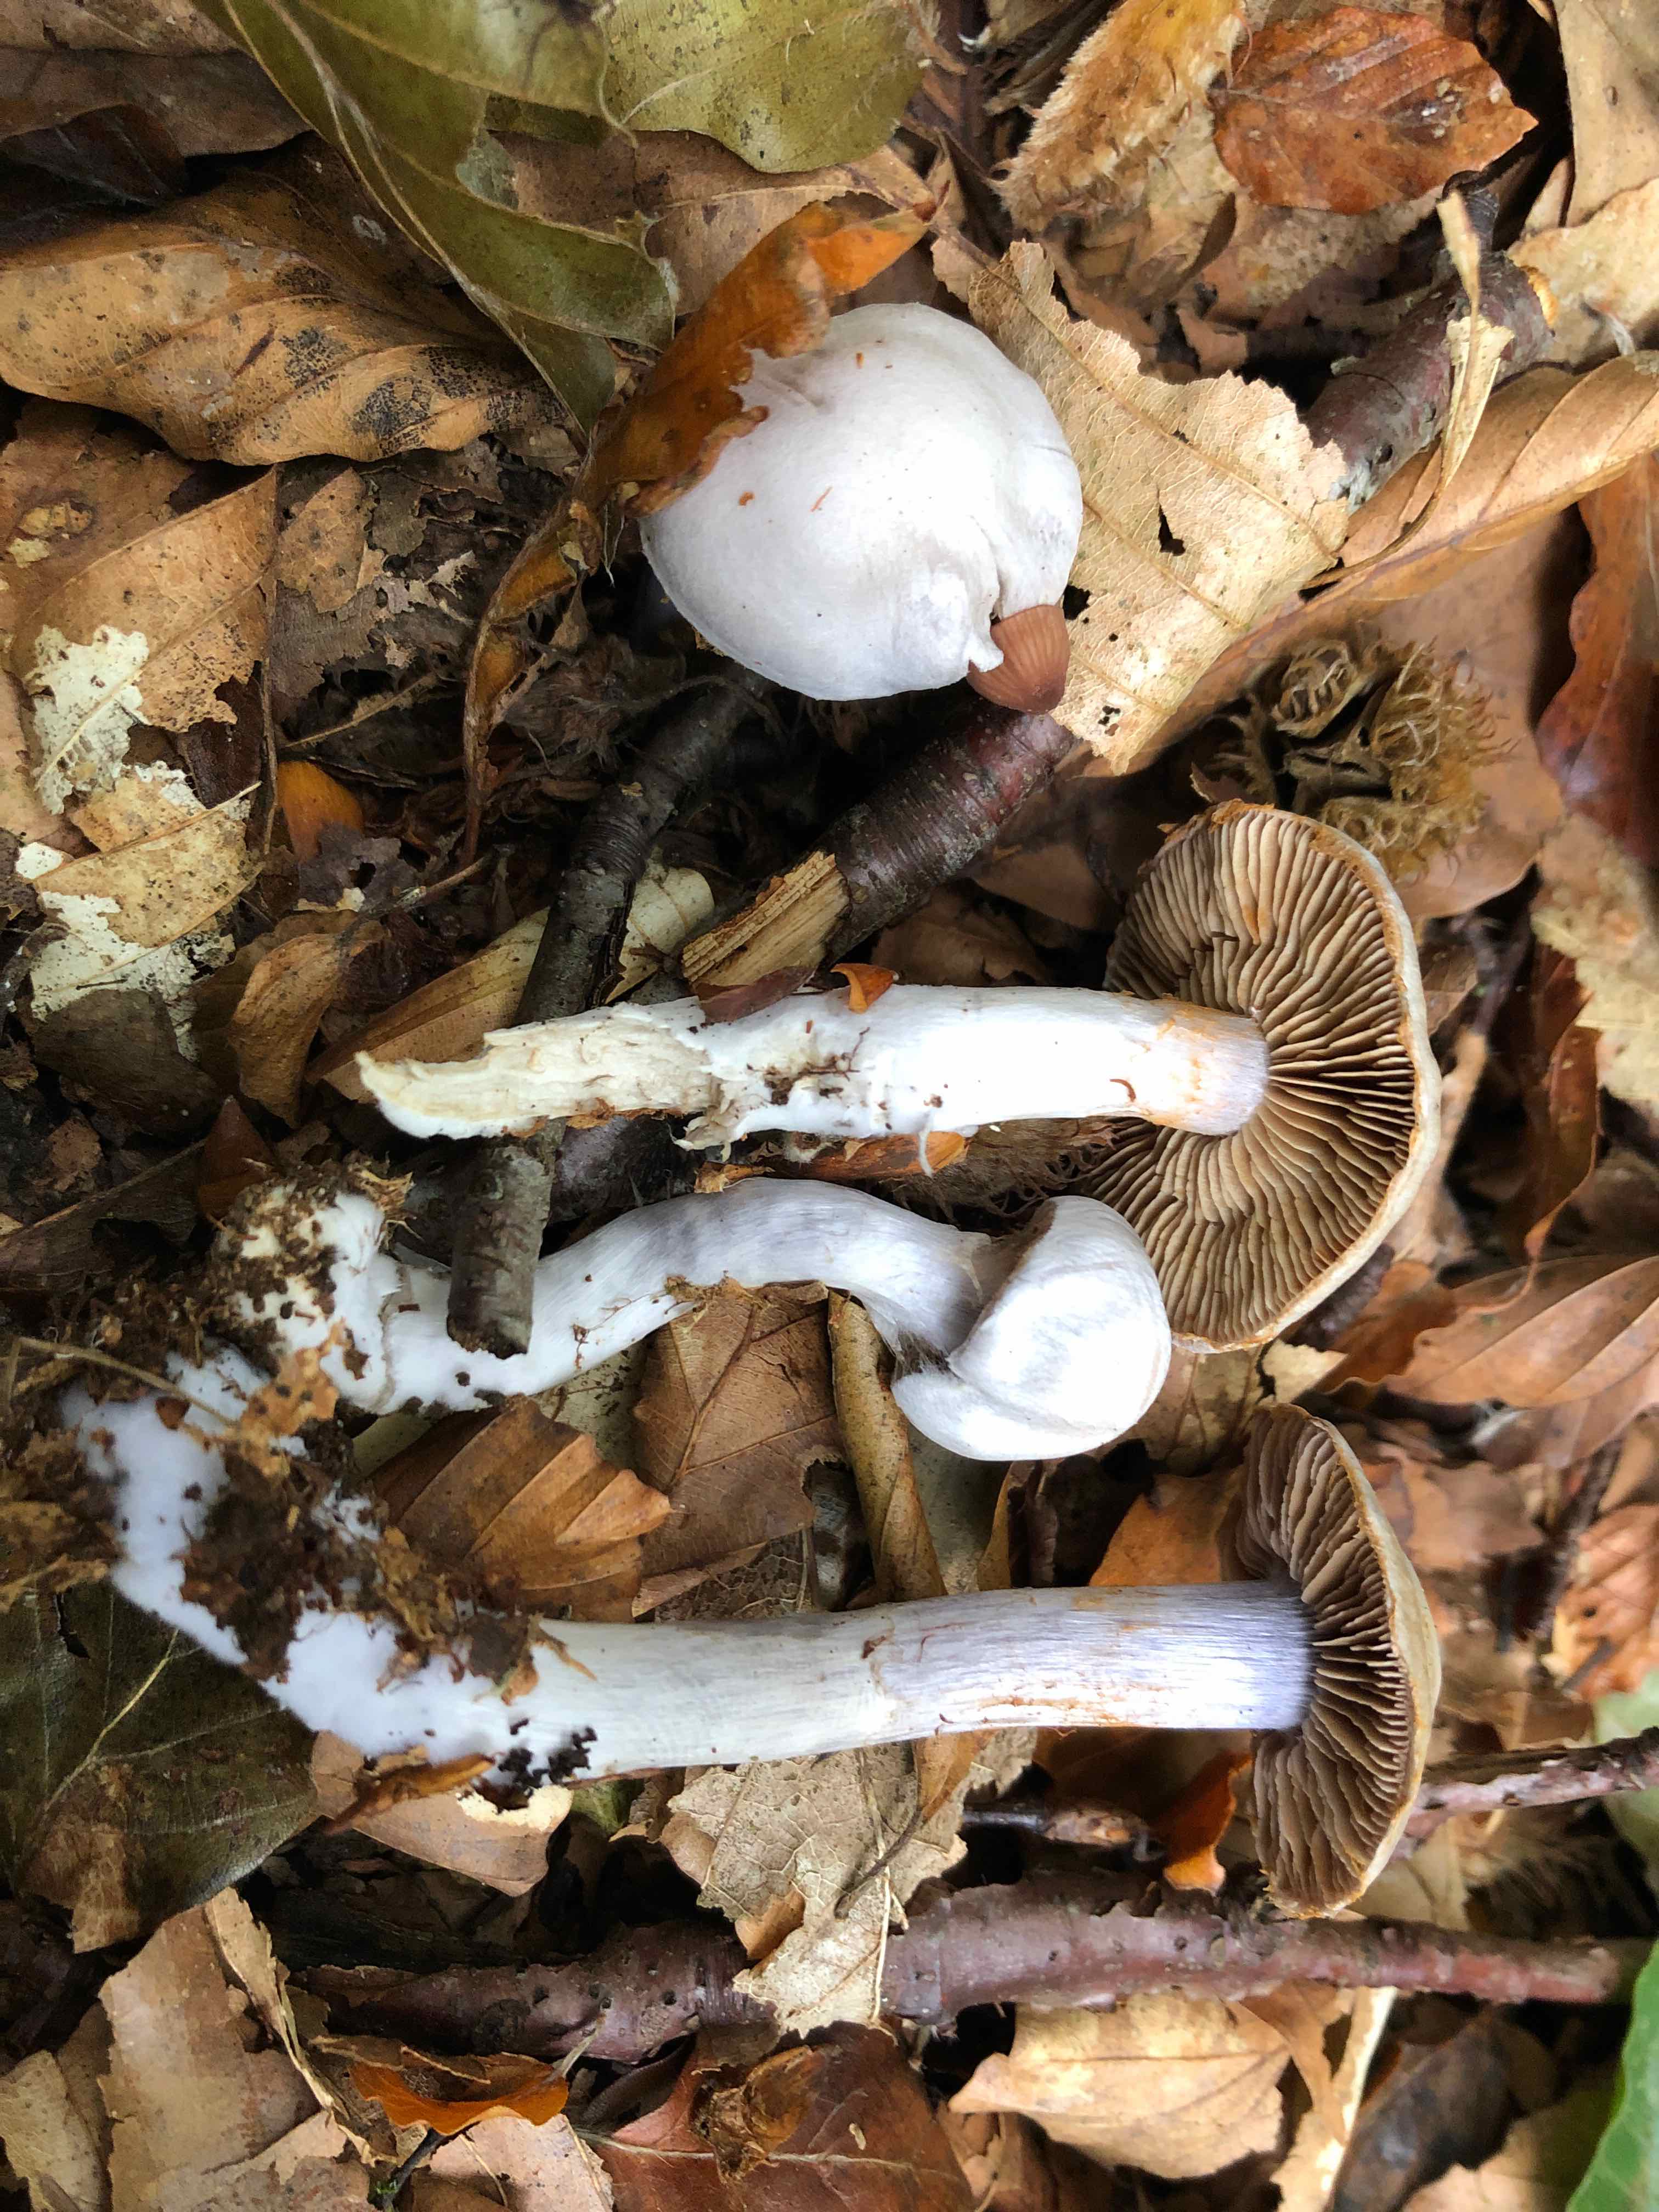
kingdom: Fungi
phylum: Basidiomycota
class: Agaricomycetes
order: Agaricales
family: Cortinariaceae
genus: Cortinarius
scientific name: Cortinarius alboviolaceus
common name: lysviolet slørhat
